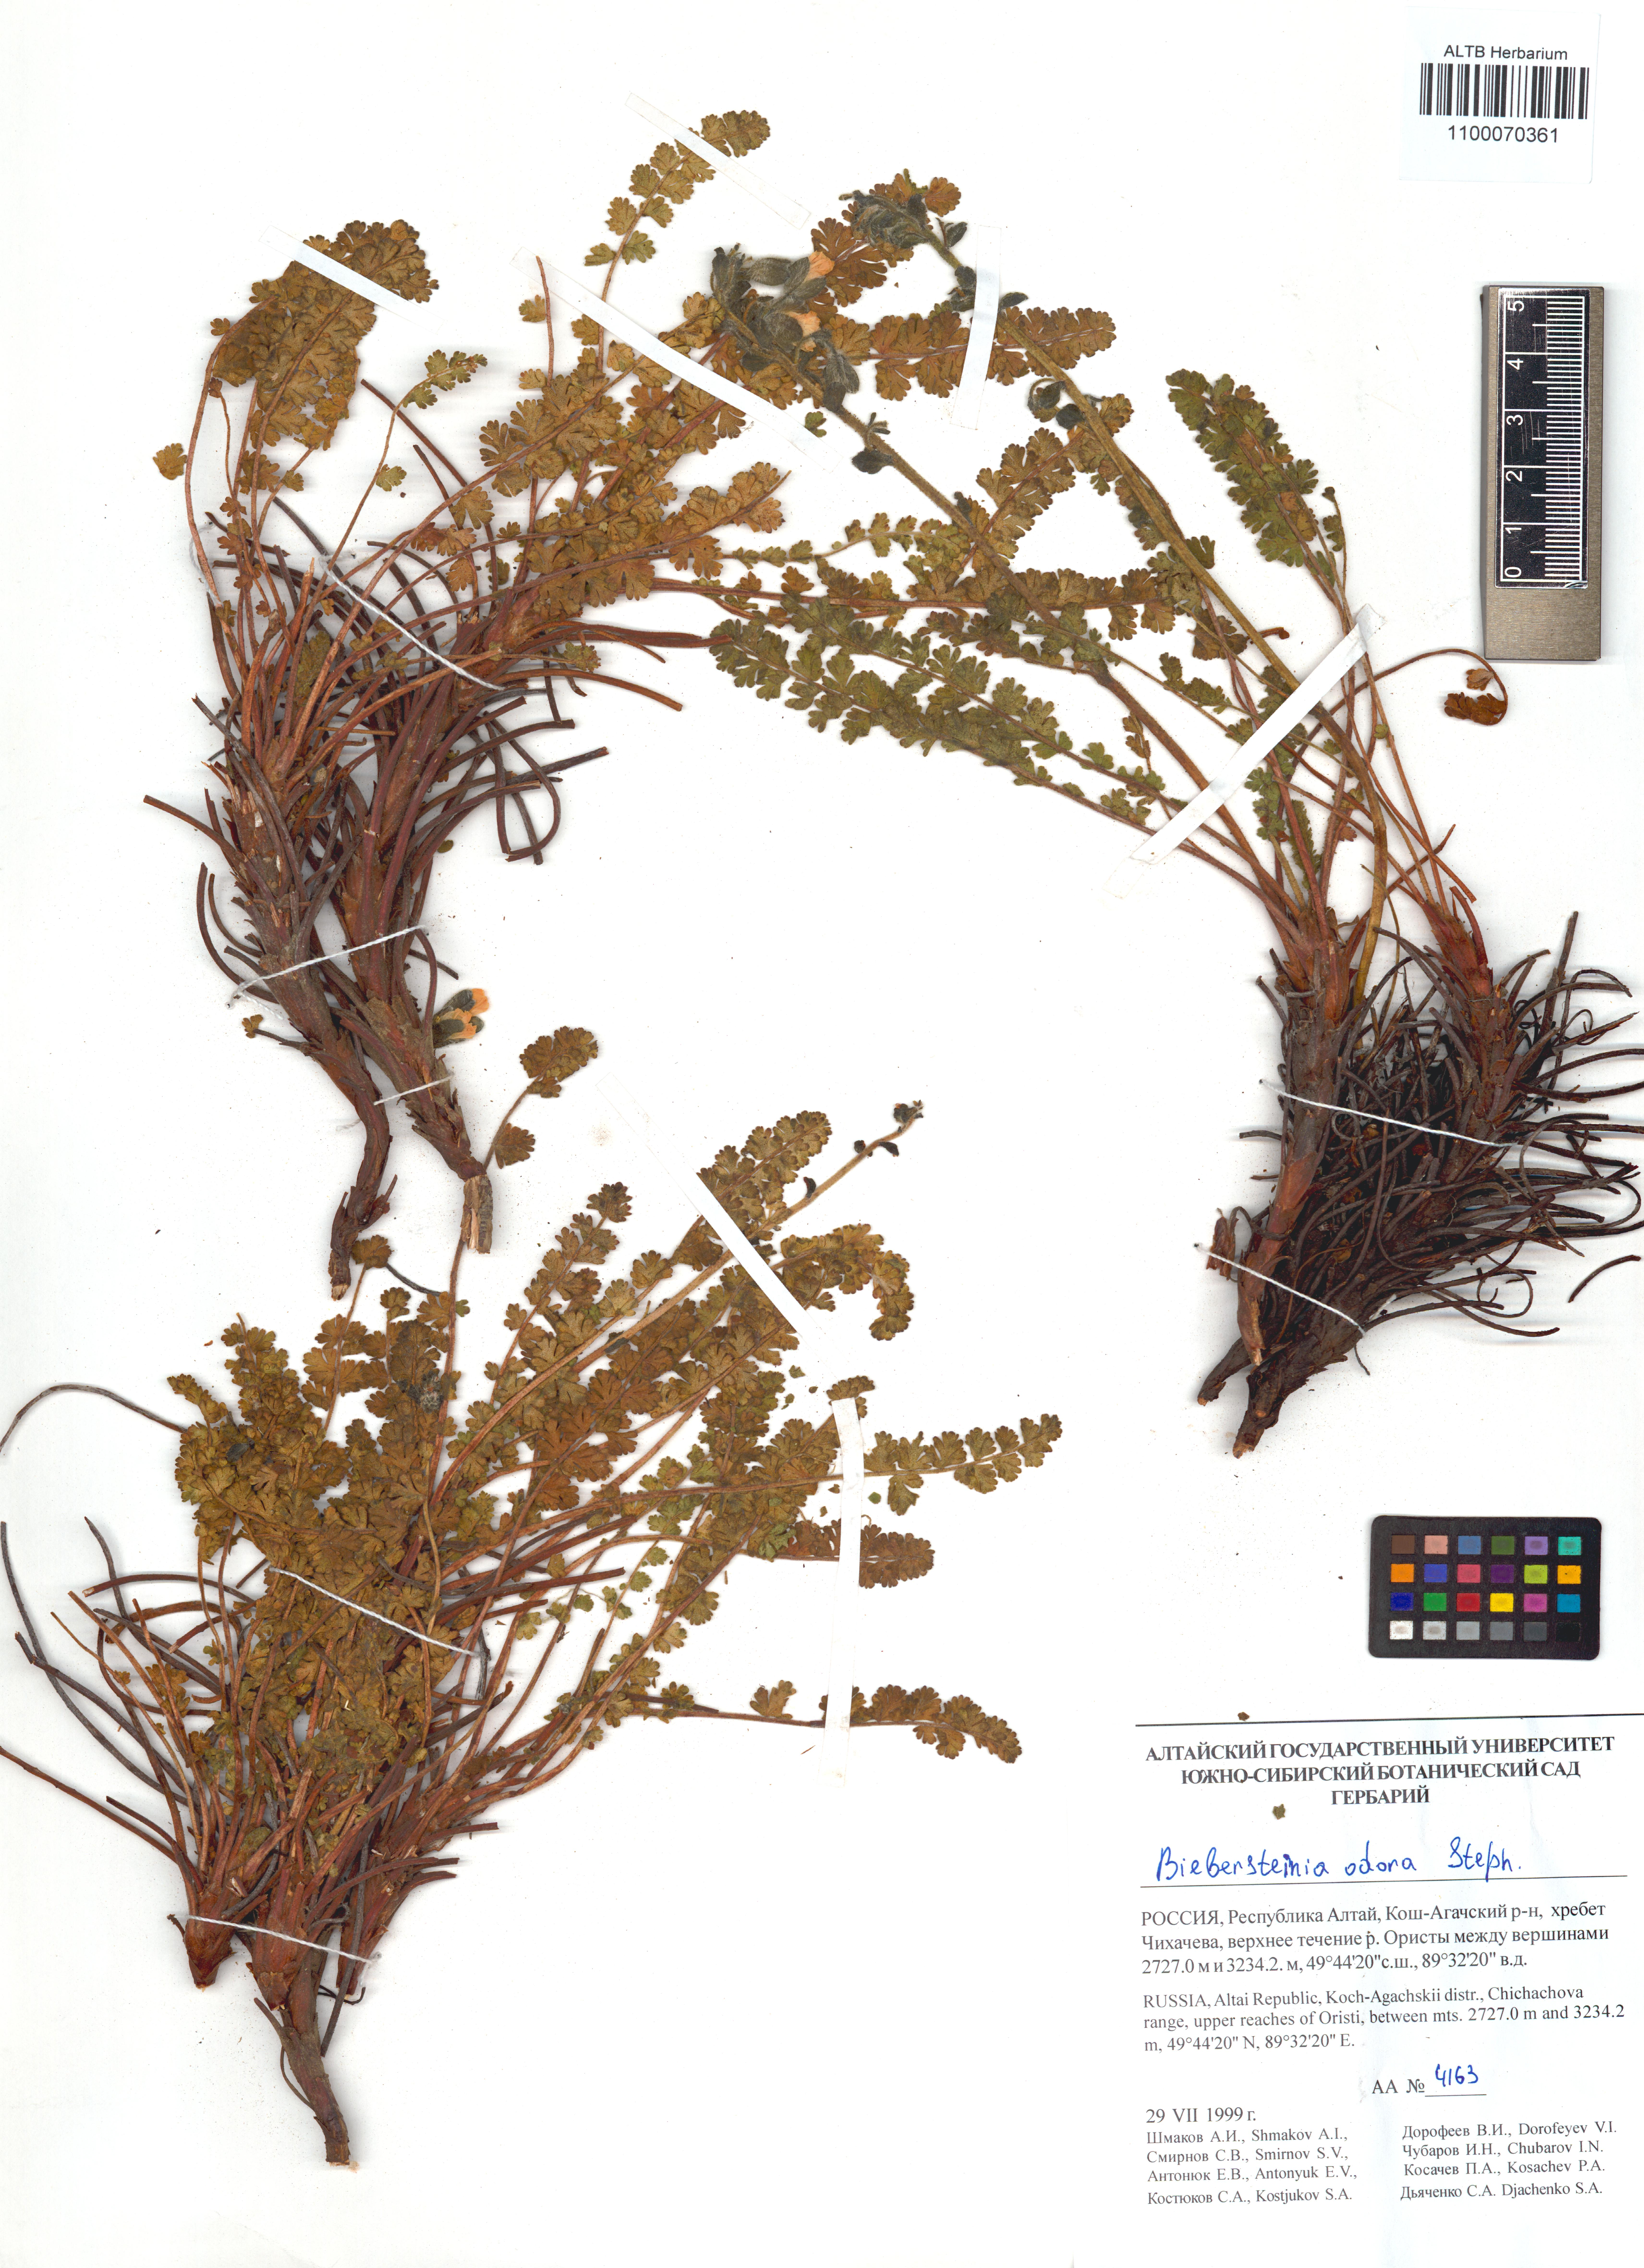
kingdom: Plantae
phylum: Tracheophyta
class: Magnoliopsida
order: Sapindales
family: Biebersteiniaceae
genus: Biebersteinia
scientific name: Biebersteinia odora
